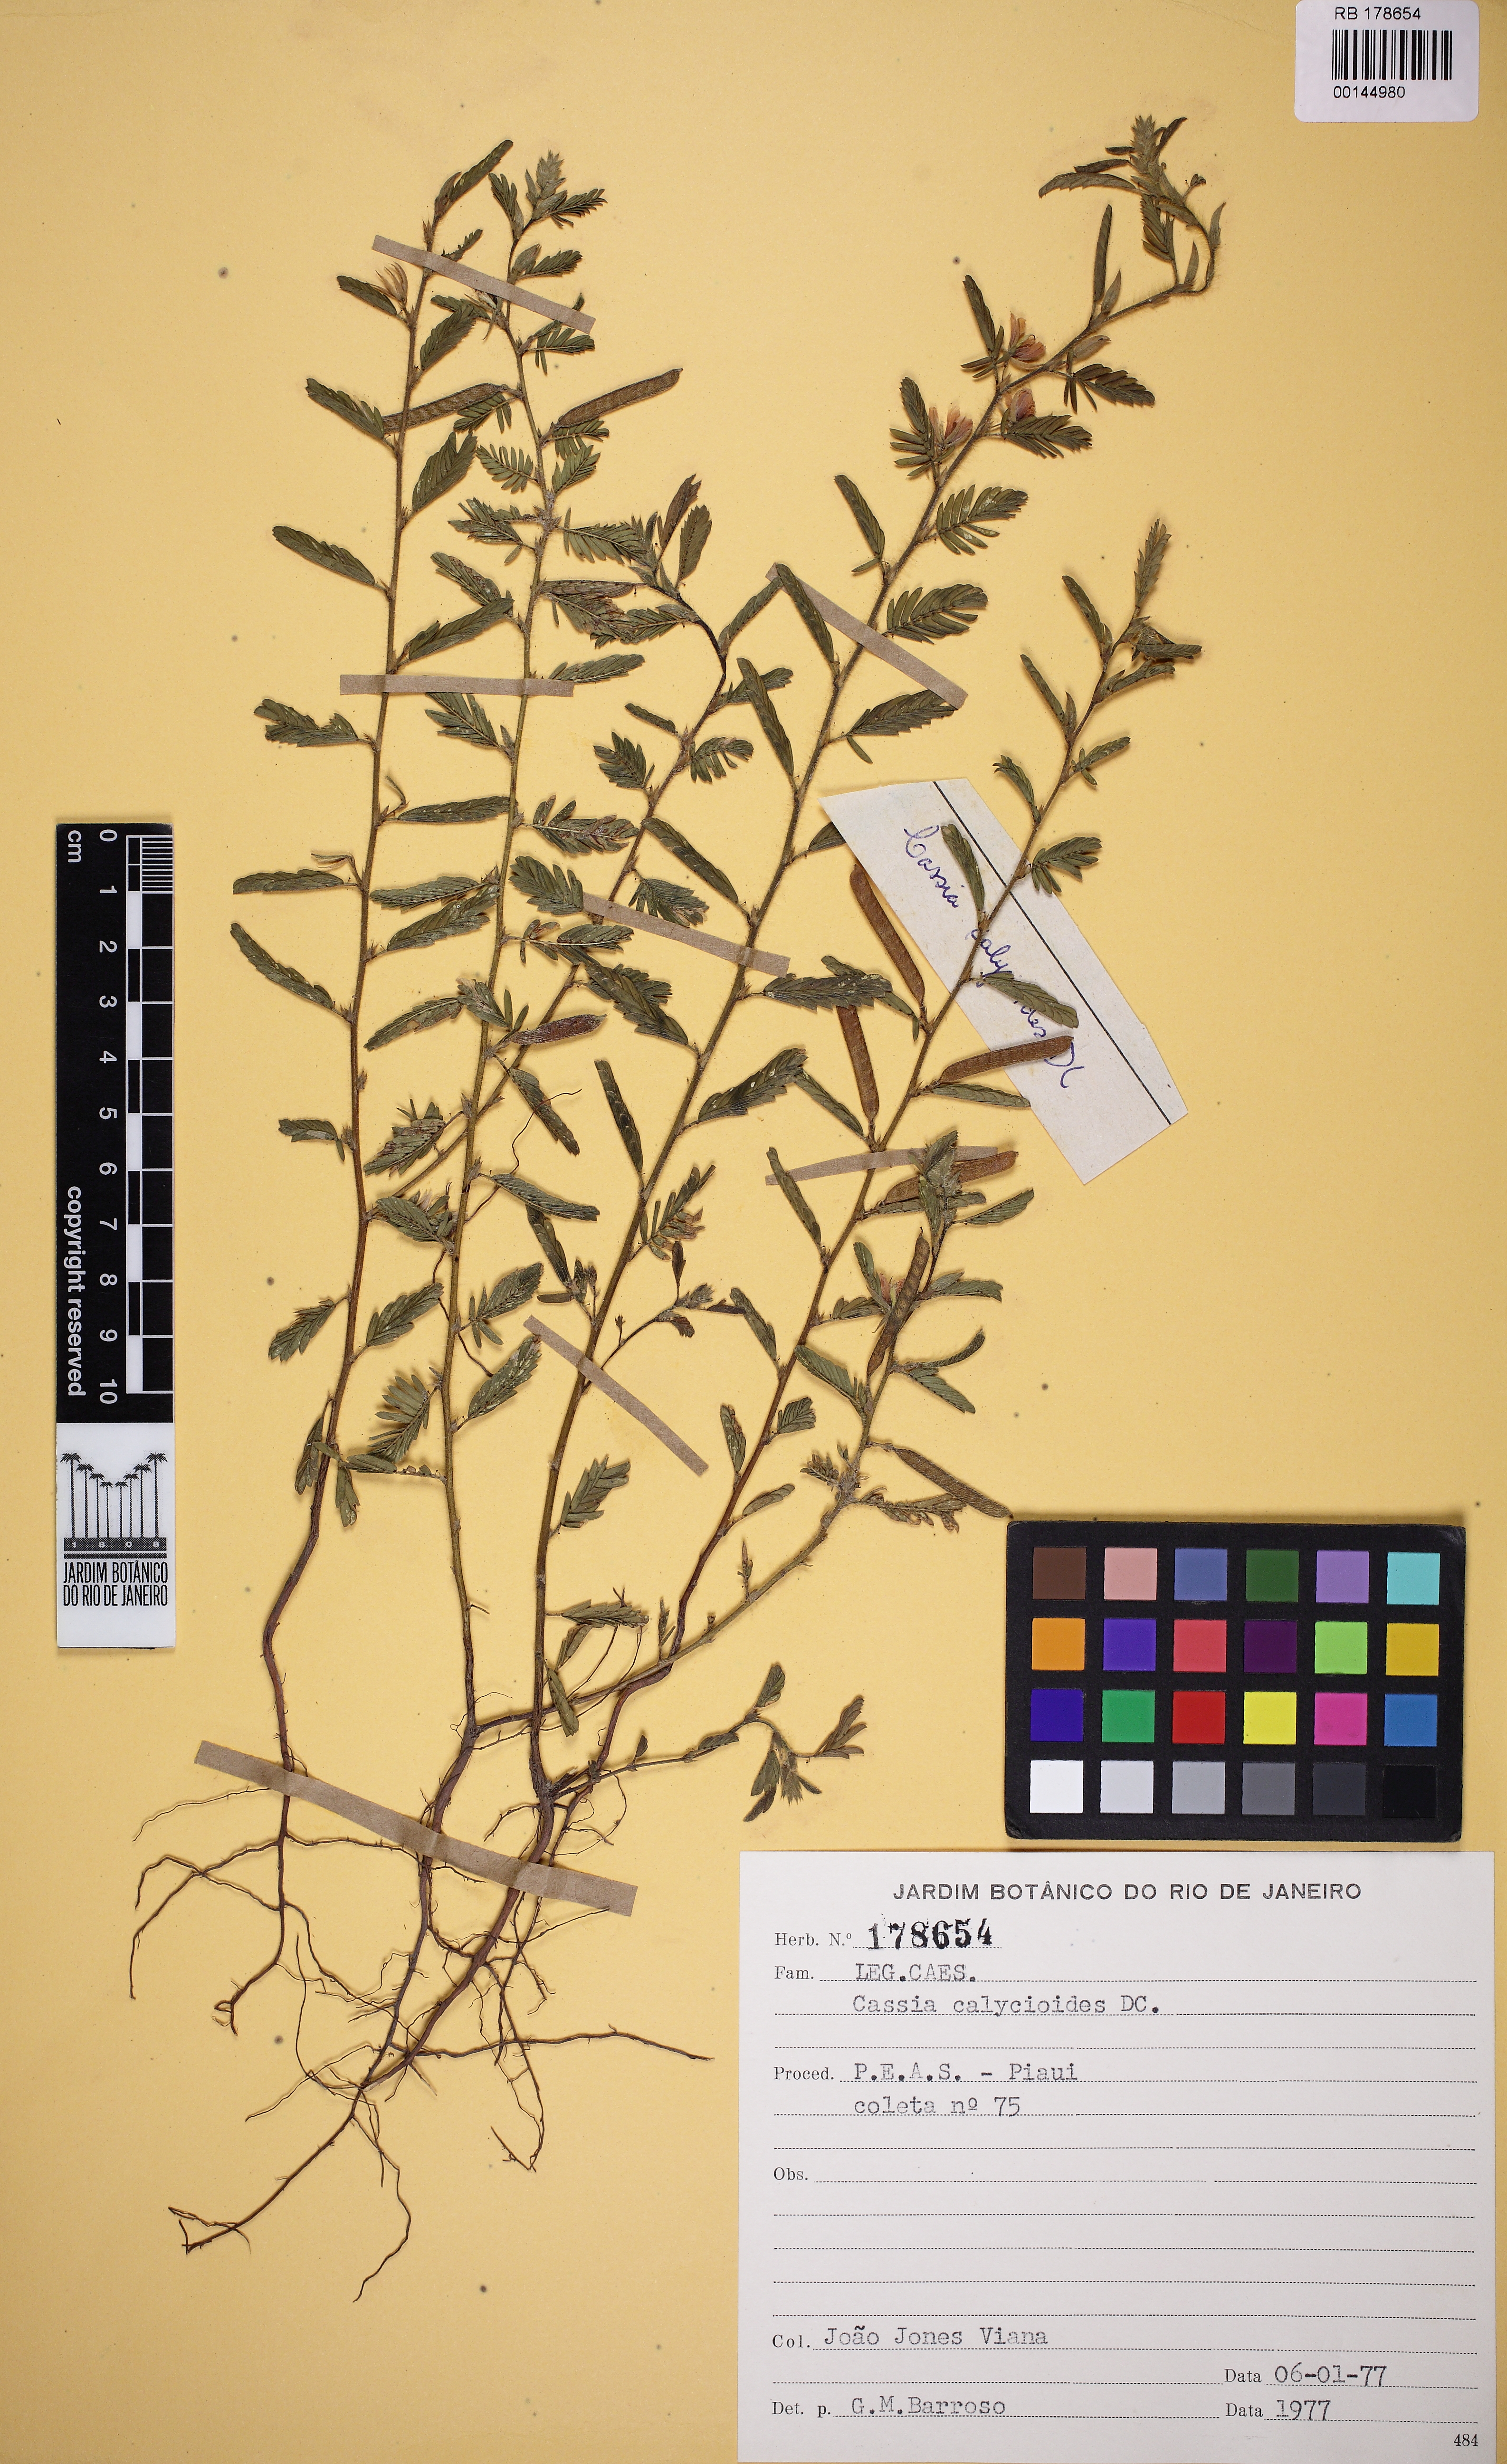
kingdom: Plantae
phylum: Tracheophyta
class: Magnoliopsida
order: Fabales
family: Fabaceae
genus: Chamaecrista
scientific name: Chamaecrista calycioides
